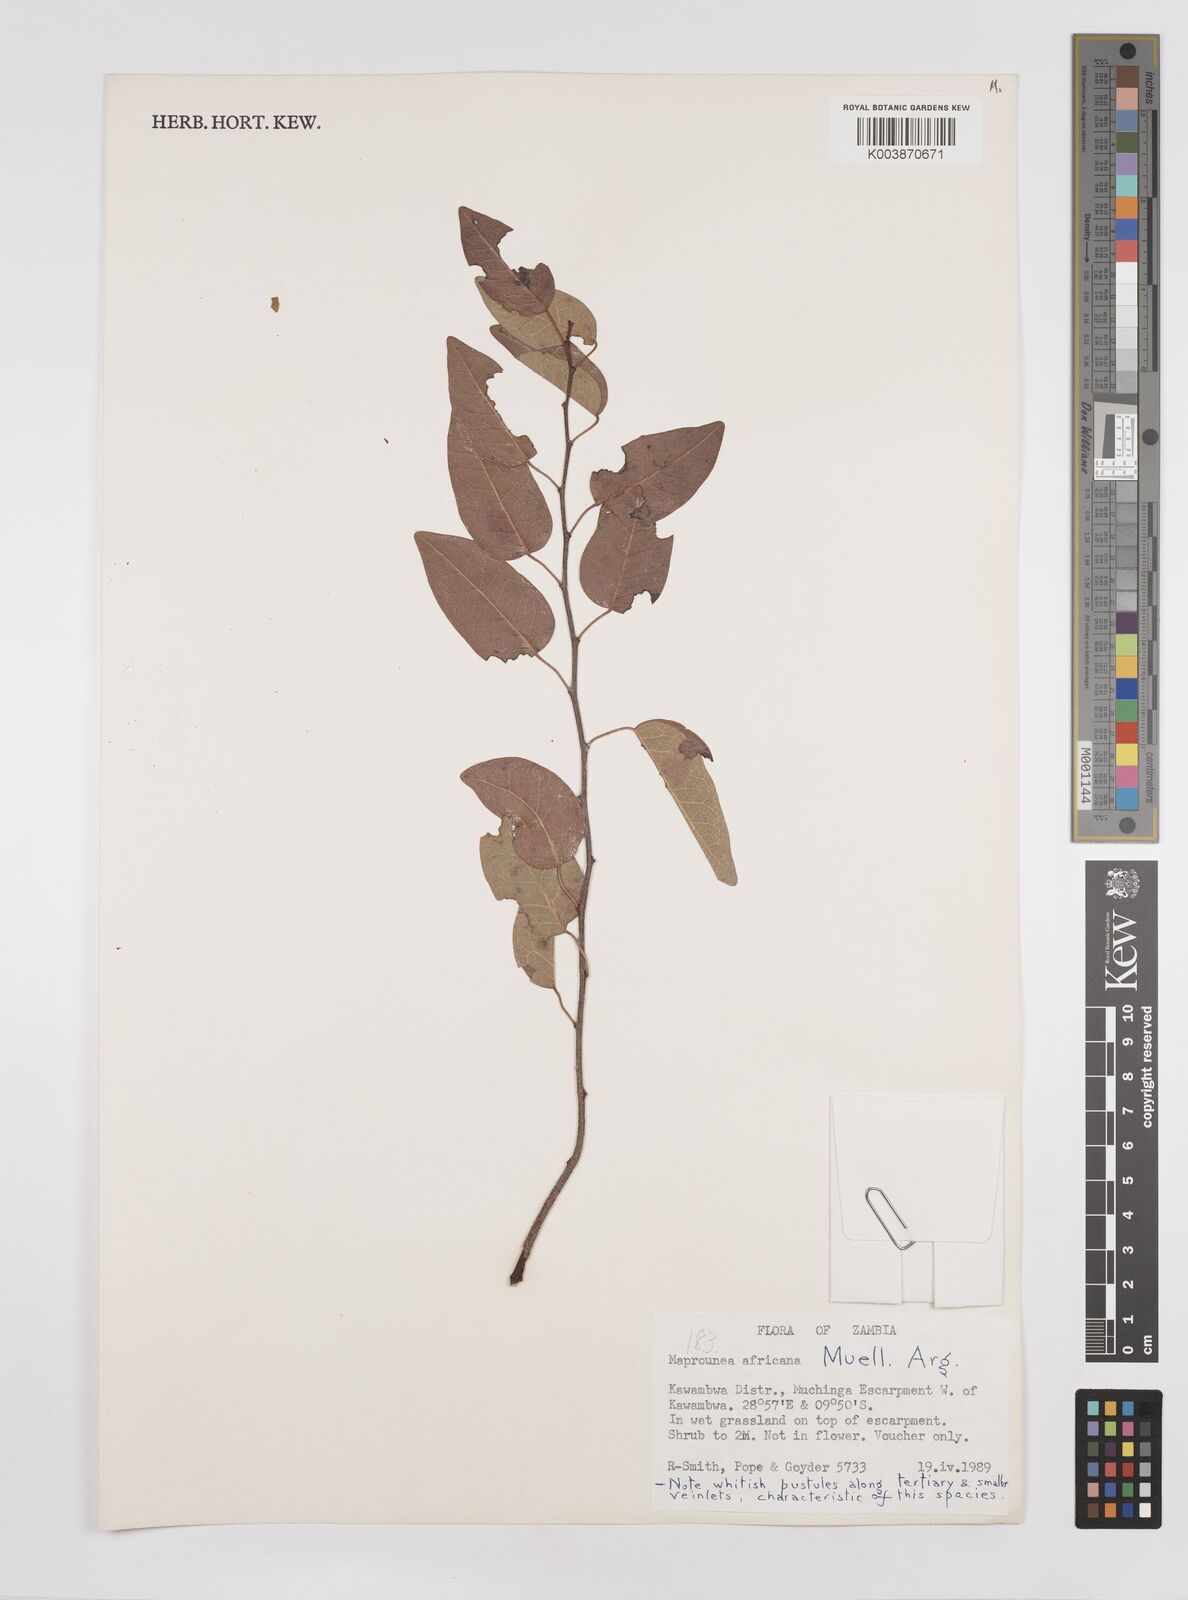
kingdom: Plantae
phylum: Tracheophyta
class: Magnoliopsida
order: Malpighiales
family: Euphorbiaceae
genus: Maprounea
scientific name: Maprounea africana
